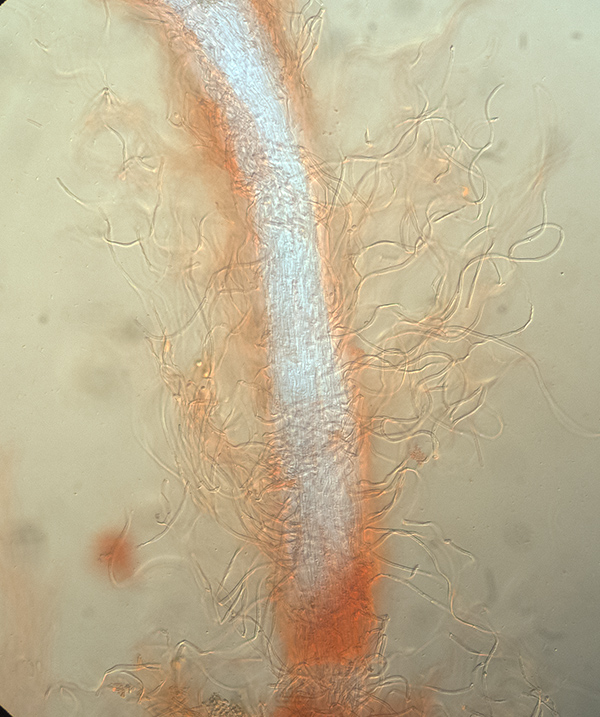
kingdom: Fungi
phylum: Basidiomycota
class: Agaricomycetes
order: Hymenochaetales
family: Rickenellaceae
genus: Bryopistillaria
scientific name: Bryopistillaria sagittiformis
